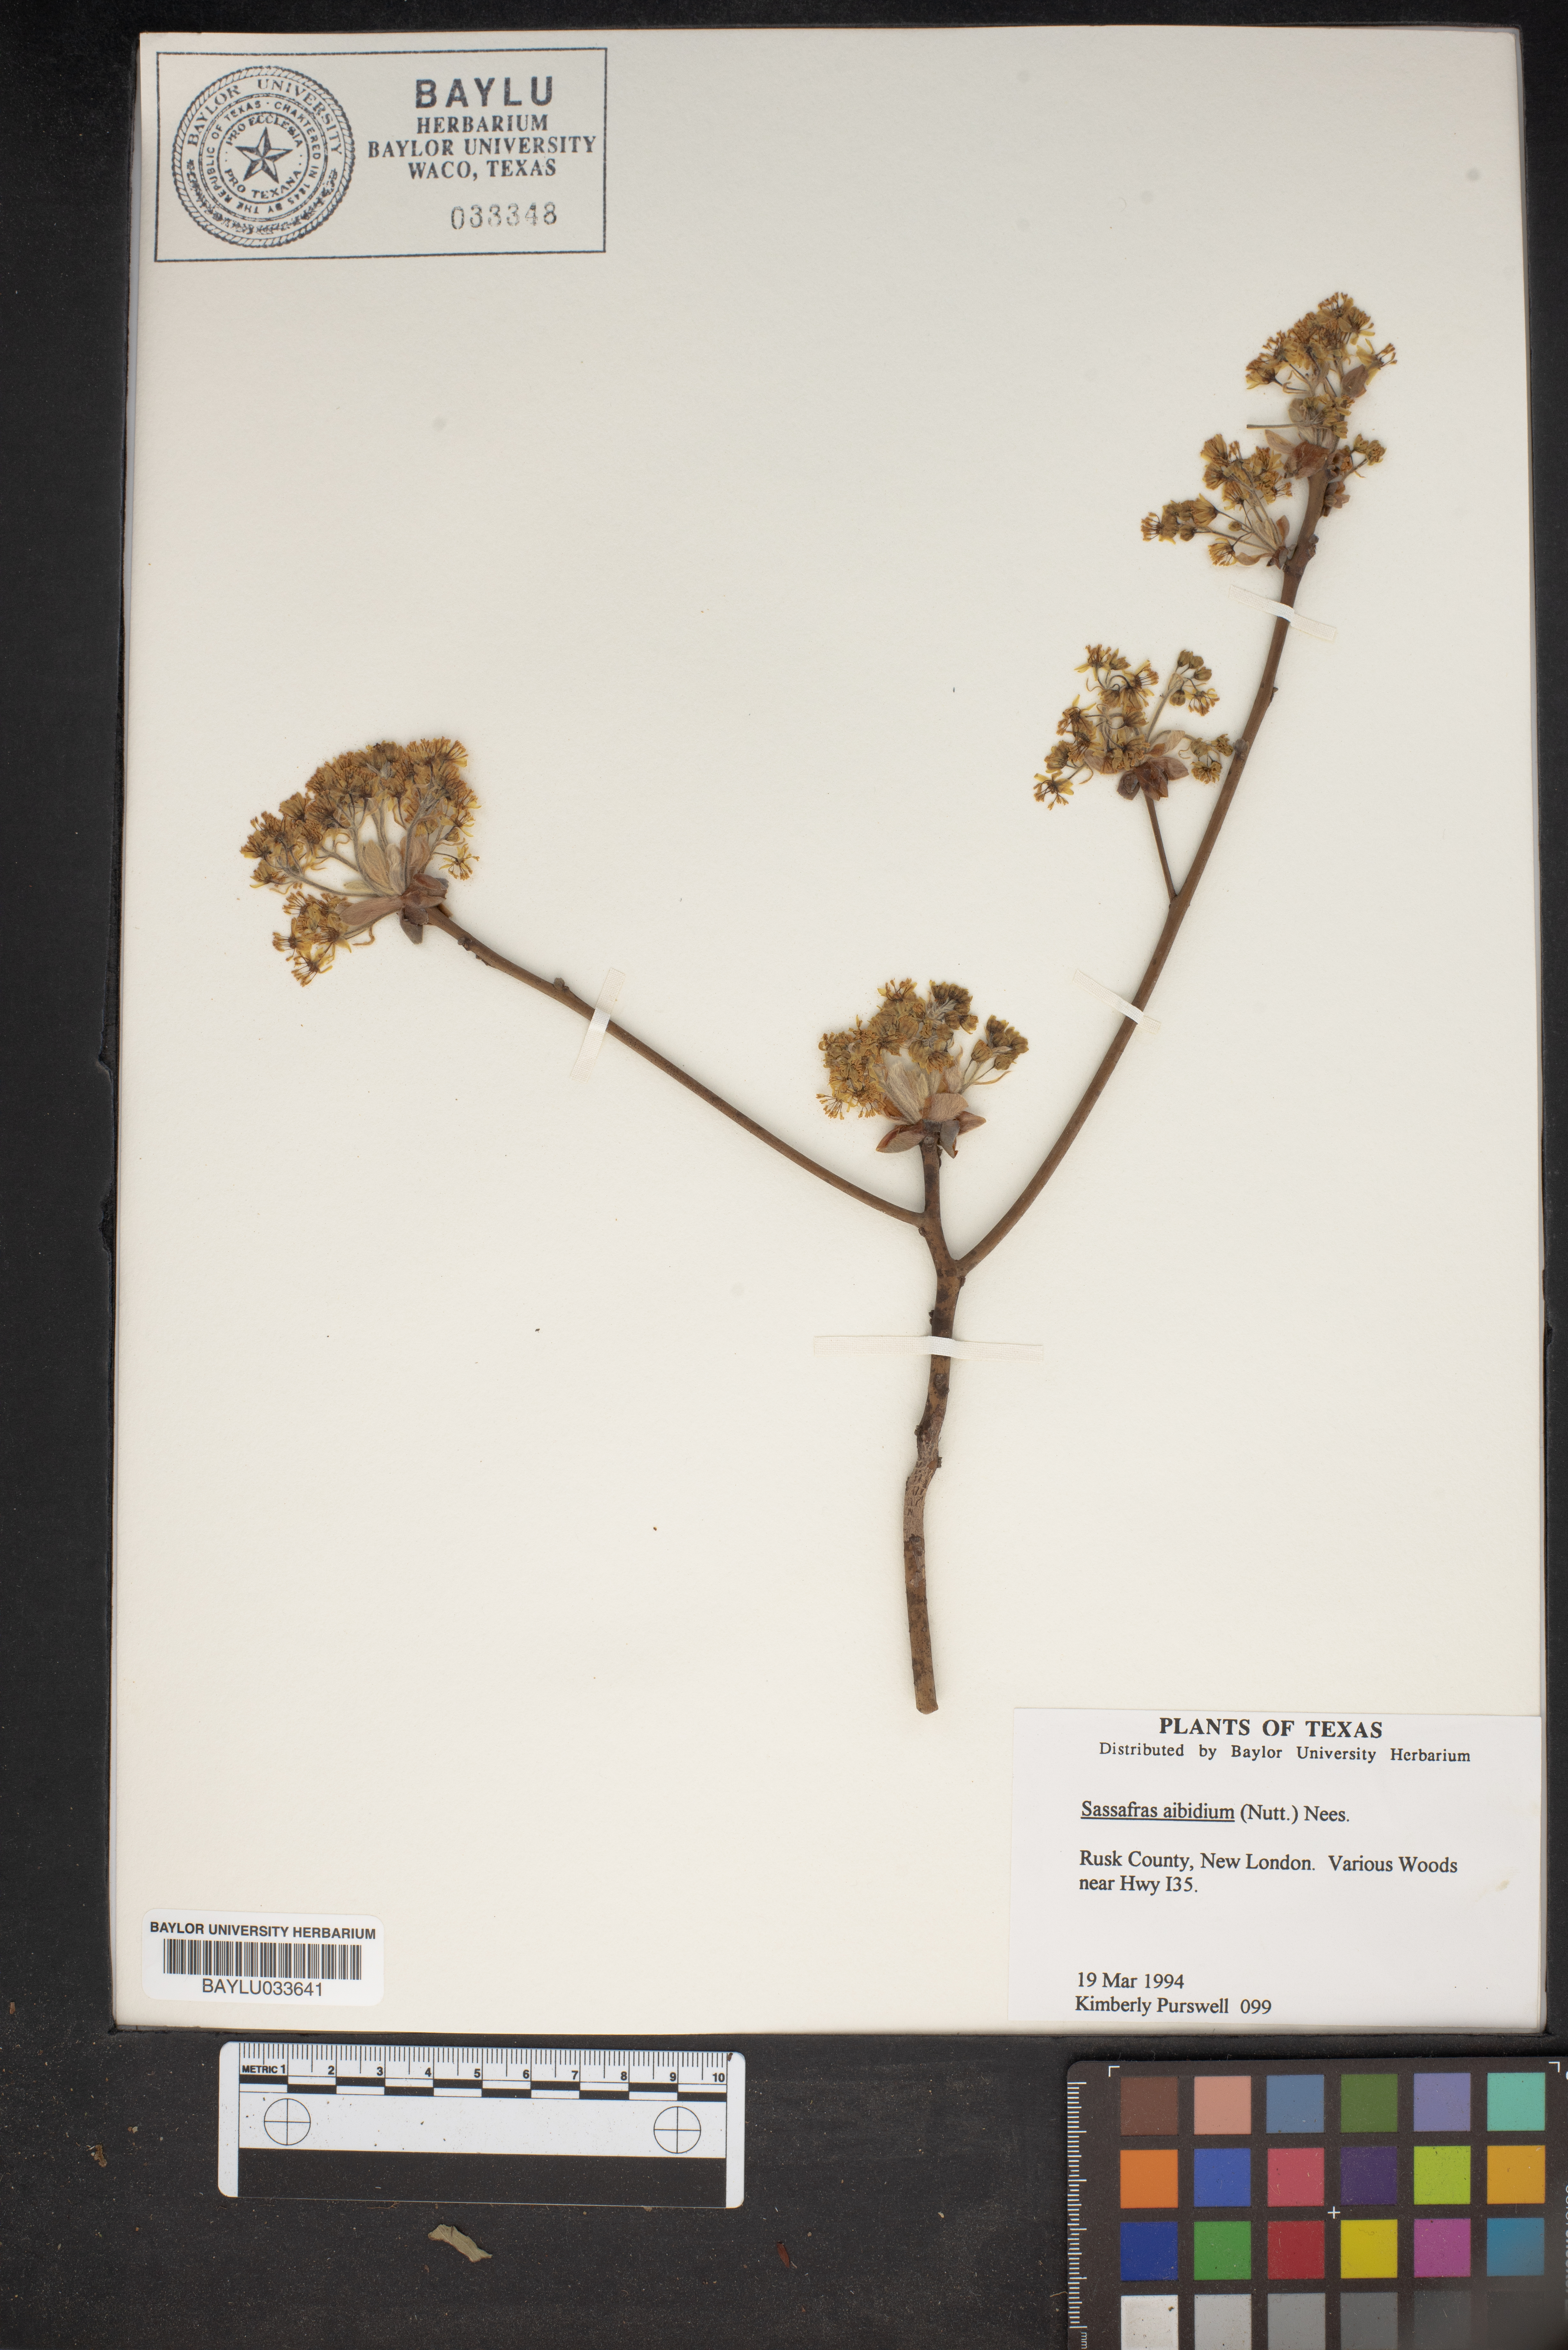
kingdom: Plantae
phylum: Tracheophyta
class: Magnoliopsida
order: Laurales
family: Lauraceae
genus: Sassafras
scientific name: Sassafras albidum
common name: Sassafras
